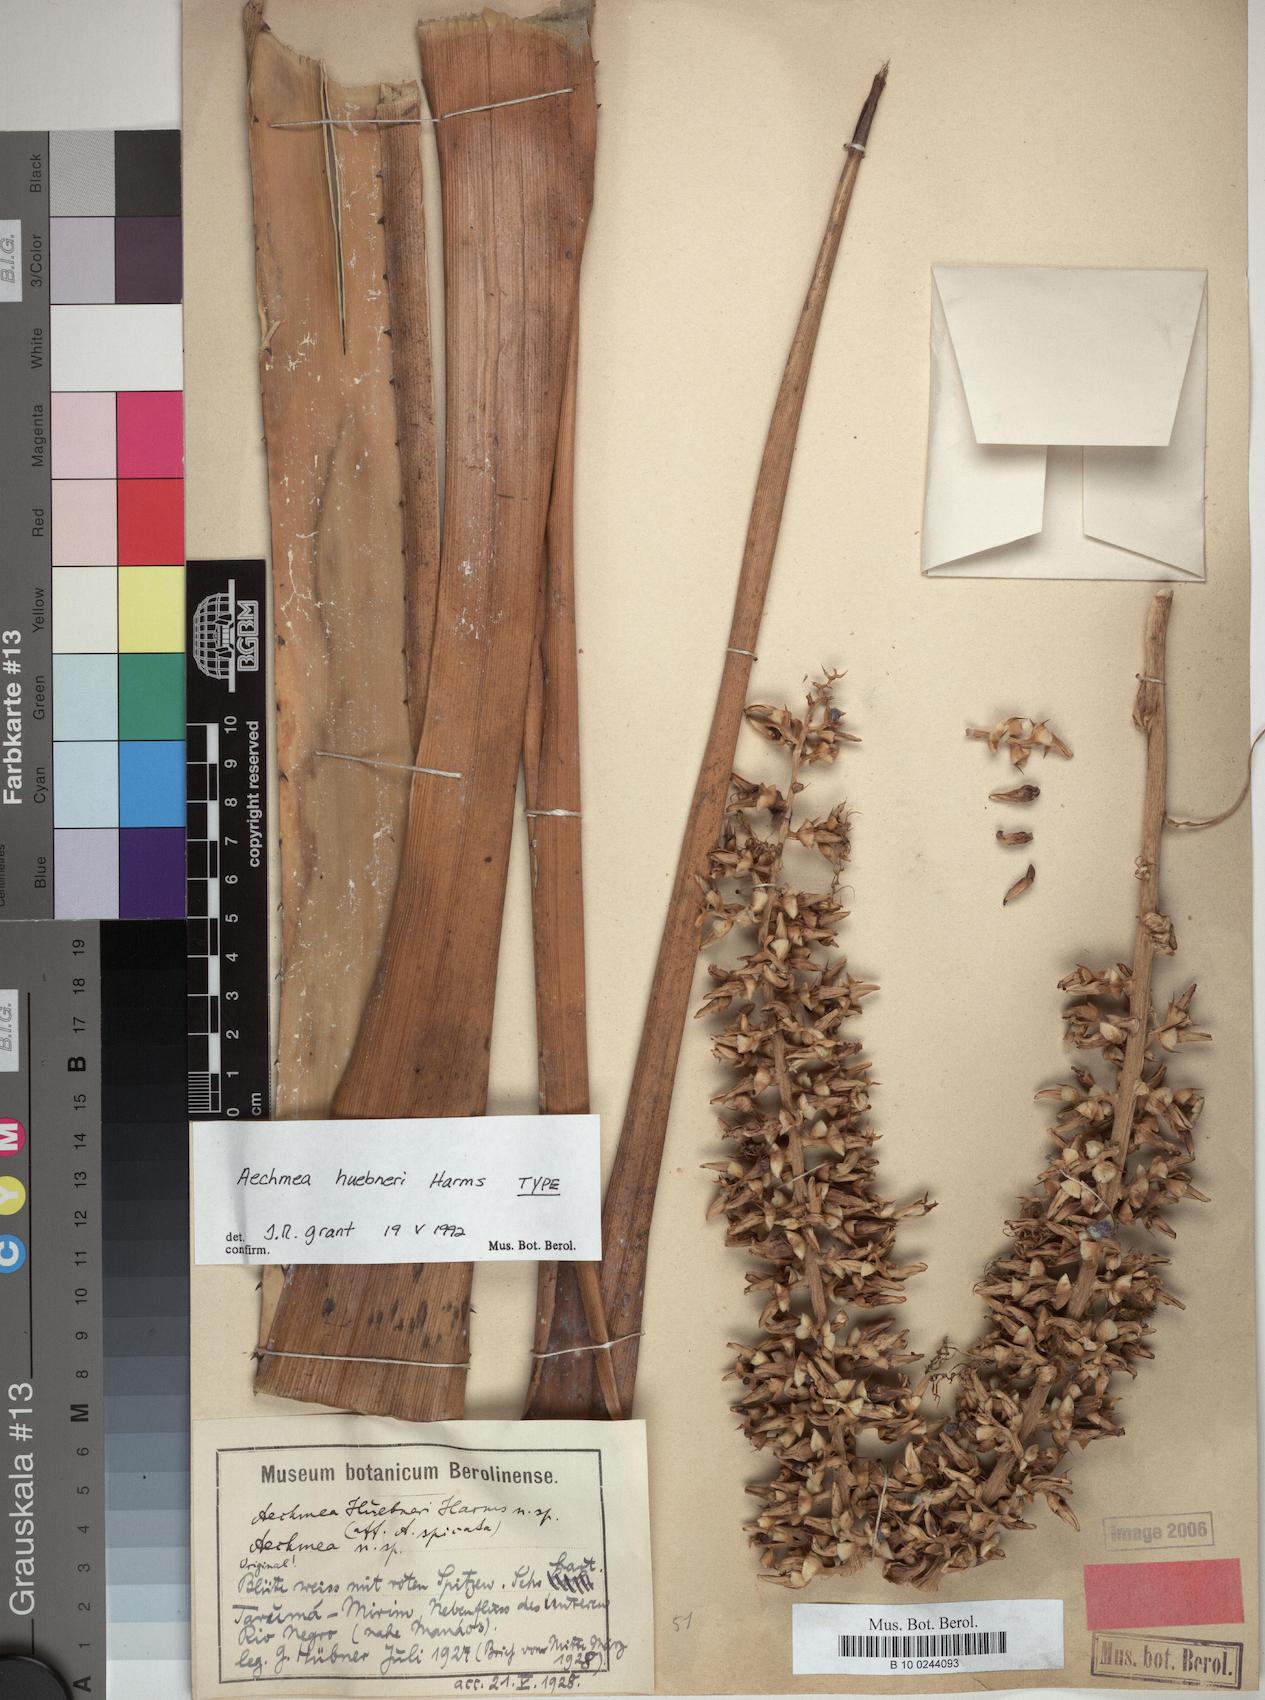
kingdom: Plantae
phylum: Tracheophyta
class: Liliopsida
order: Poales
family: Bromeliaceae
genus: Aechmea
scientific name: Aechmea huebneri
